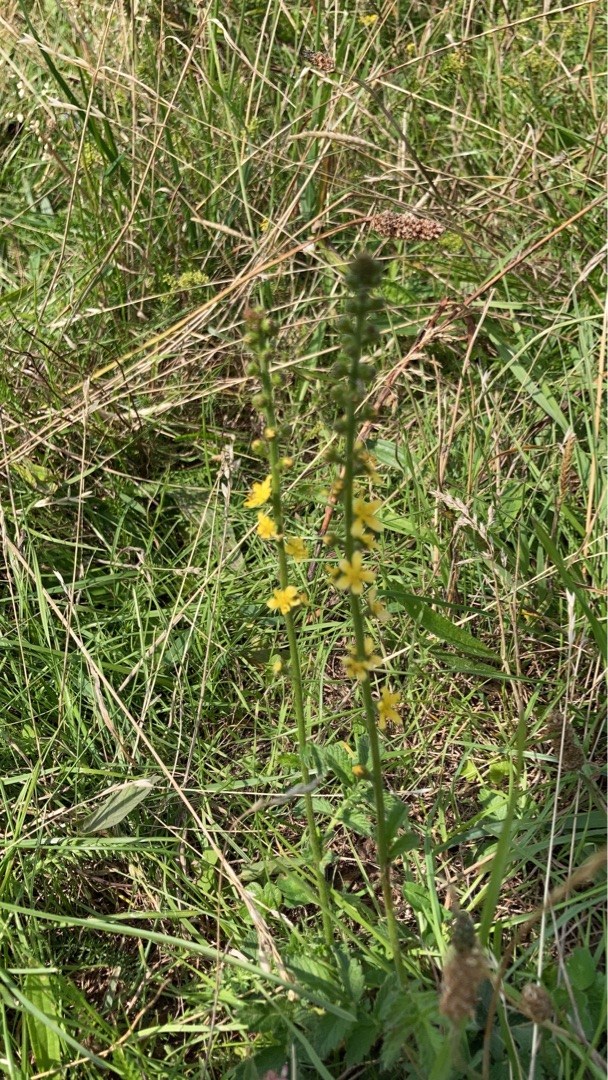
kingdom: Plantae
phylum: Tracheophyta
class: Magnoliopsida
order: Rosales
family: Rosaceae
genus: Agrimonia
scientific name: Agrimonia
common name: Agermåneslægten
